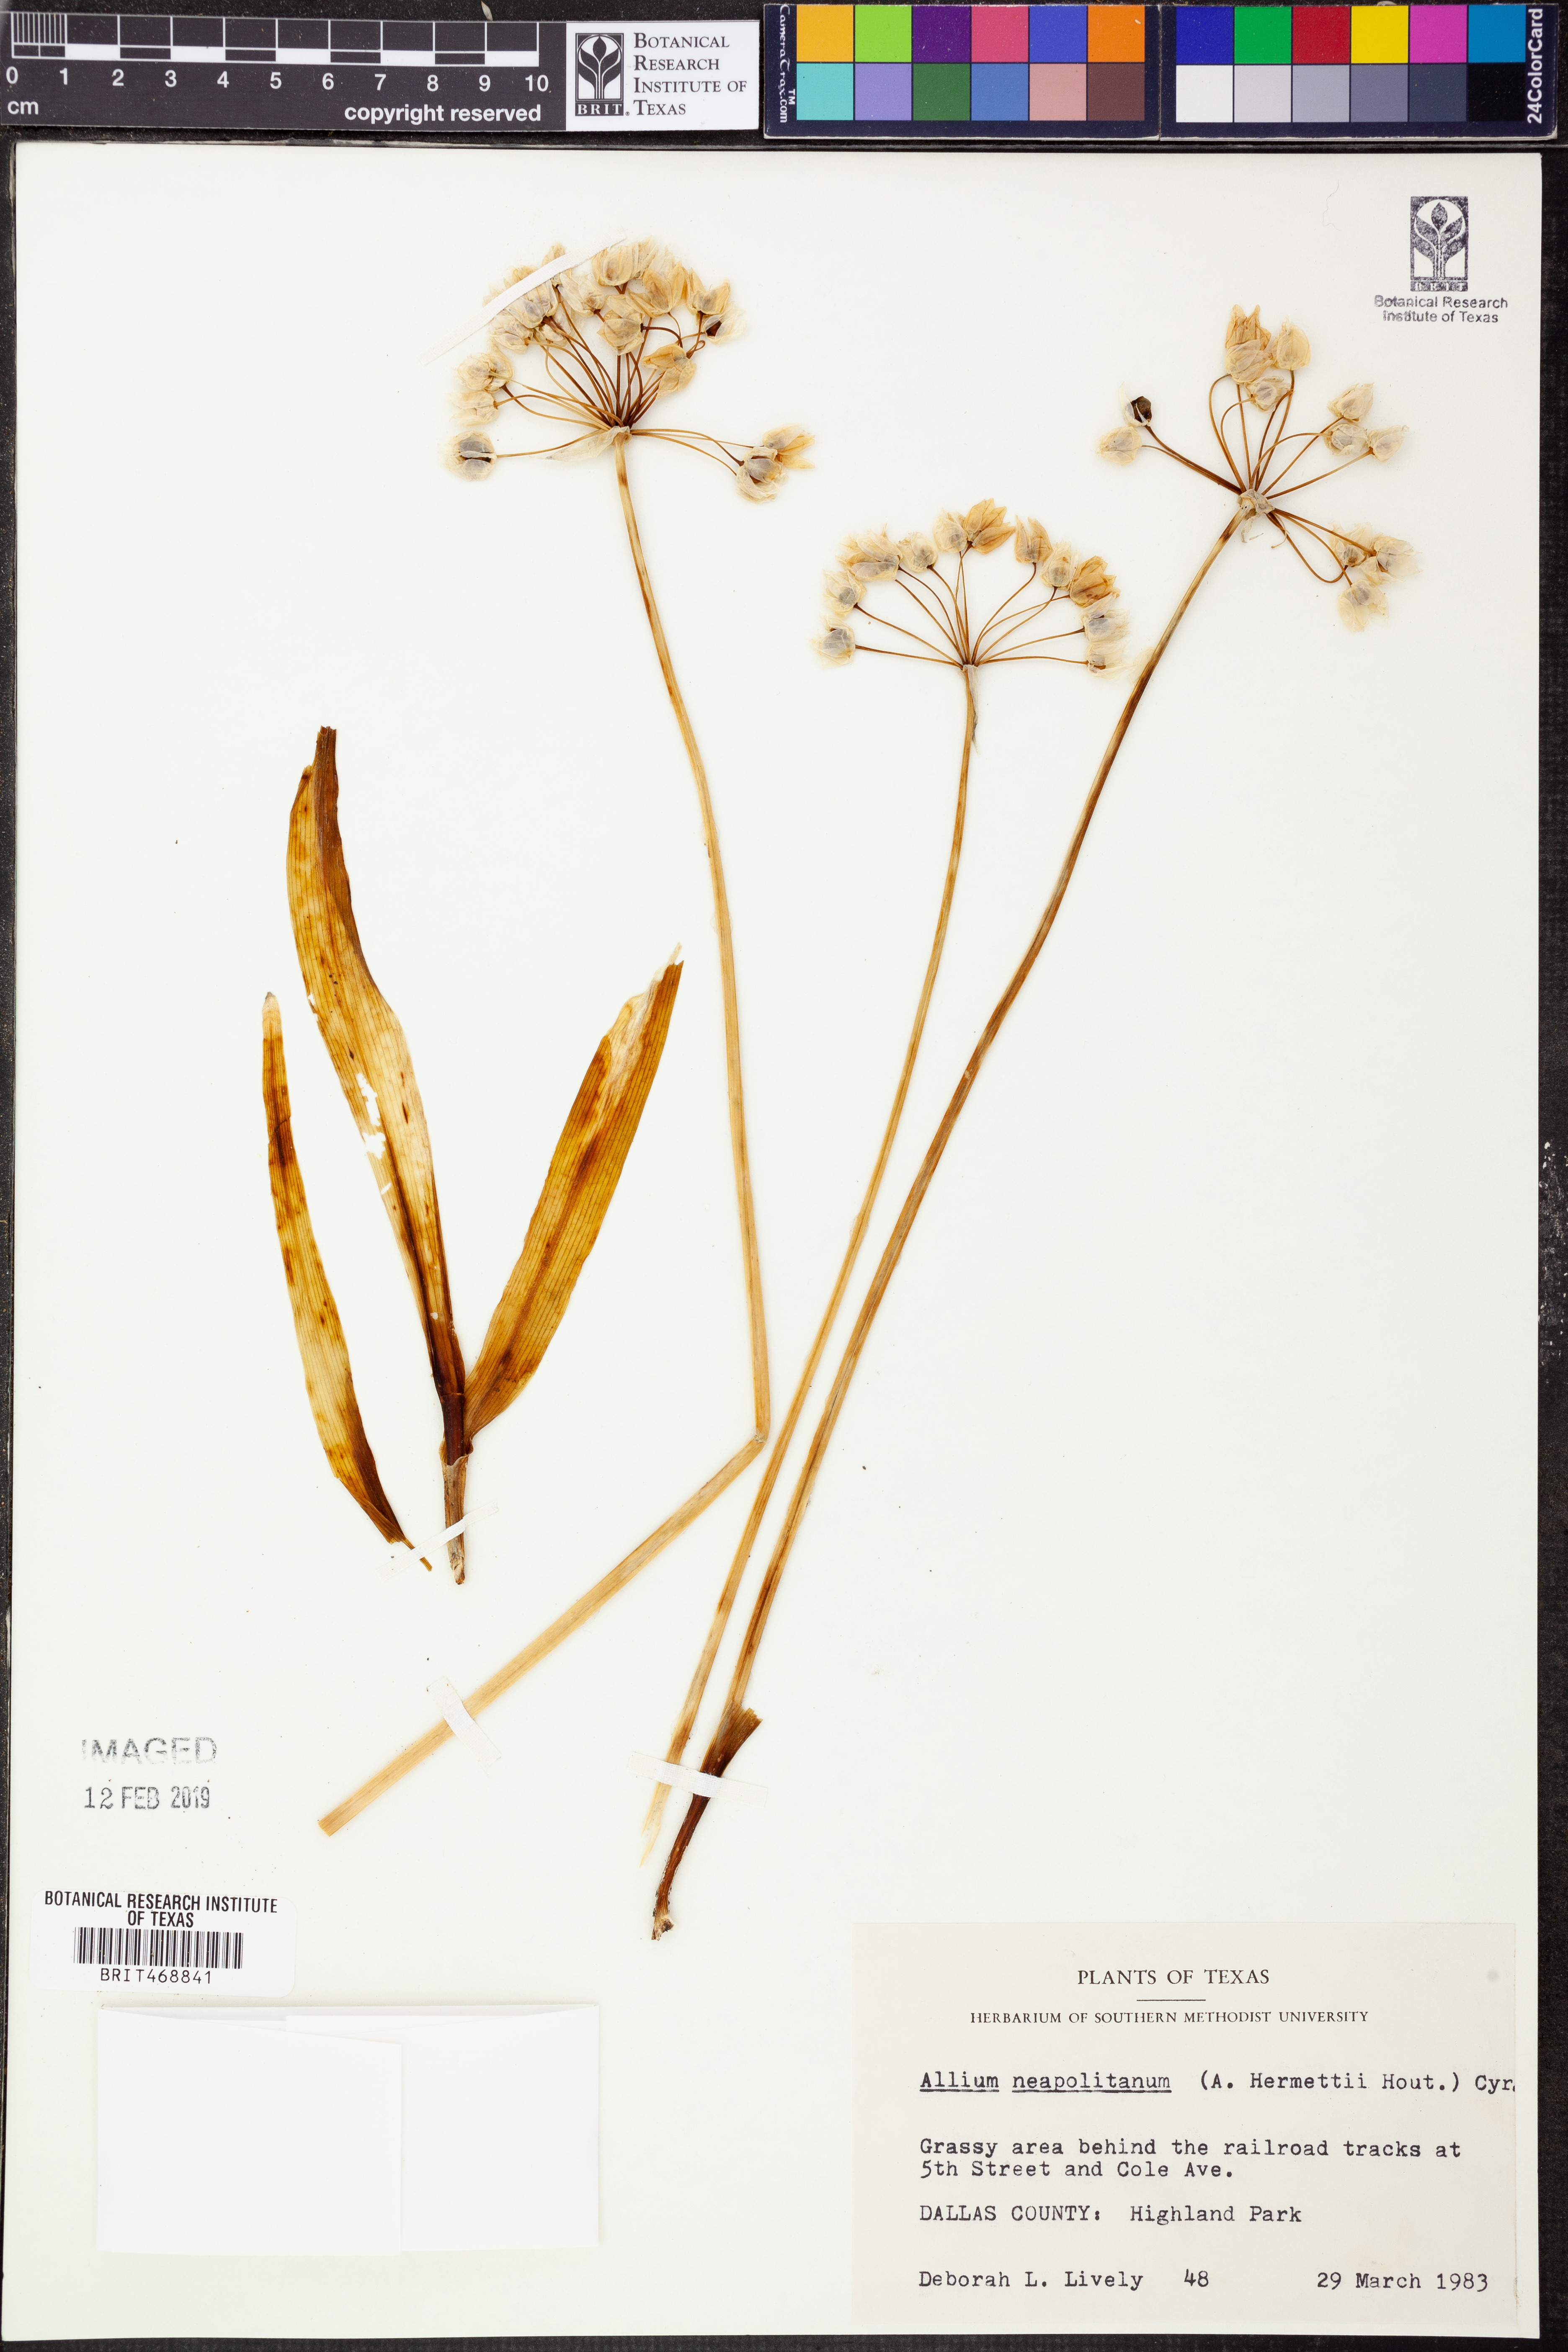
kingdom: Plantae
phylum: Tracheophyta
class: Liliopsida
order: Asparagales
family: Amaryllidaceae
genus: Allium
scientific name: Allium neapolitanum
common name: Neapolitan garlic
